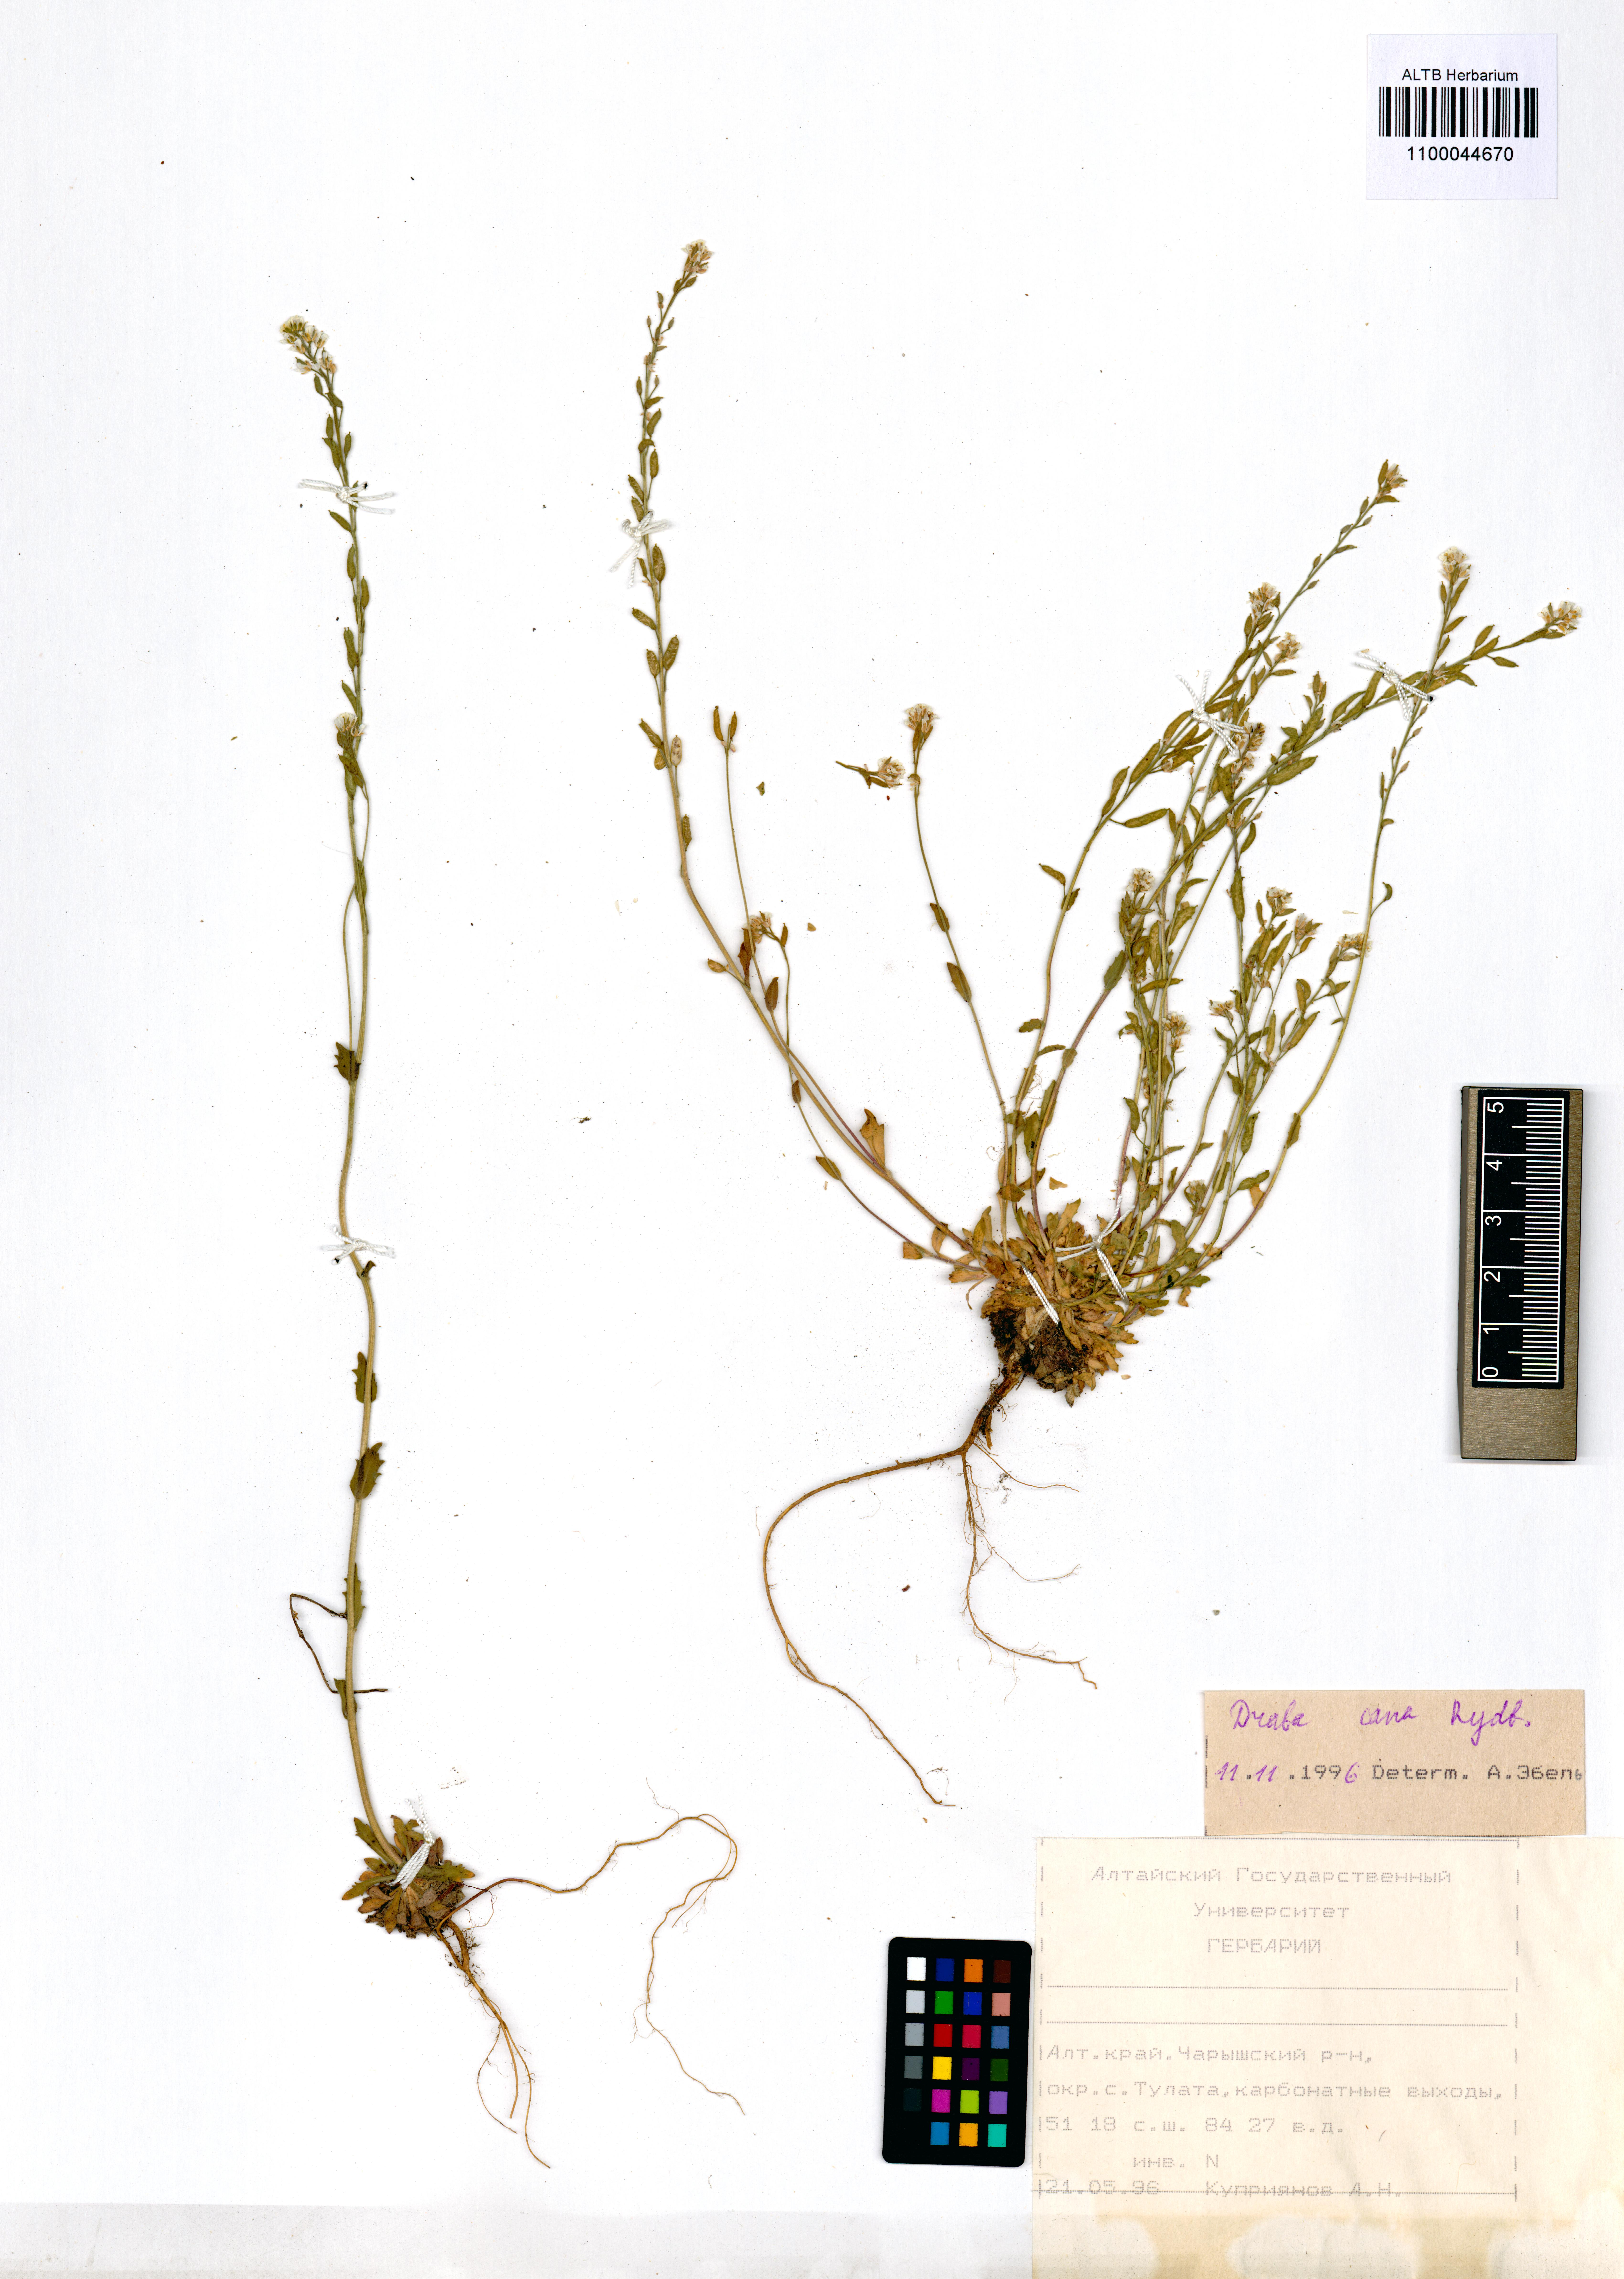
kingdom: Plantae
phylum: Tracheophyta
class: Magnoliopsida
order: Brassicales
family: Brassicaceae
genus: Draba
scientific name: Draba cana
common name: Hoary draba
